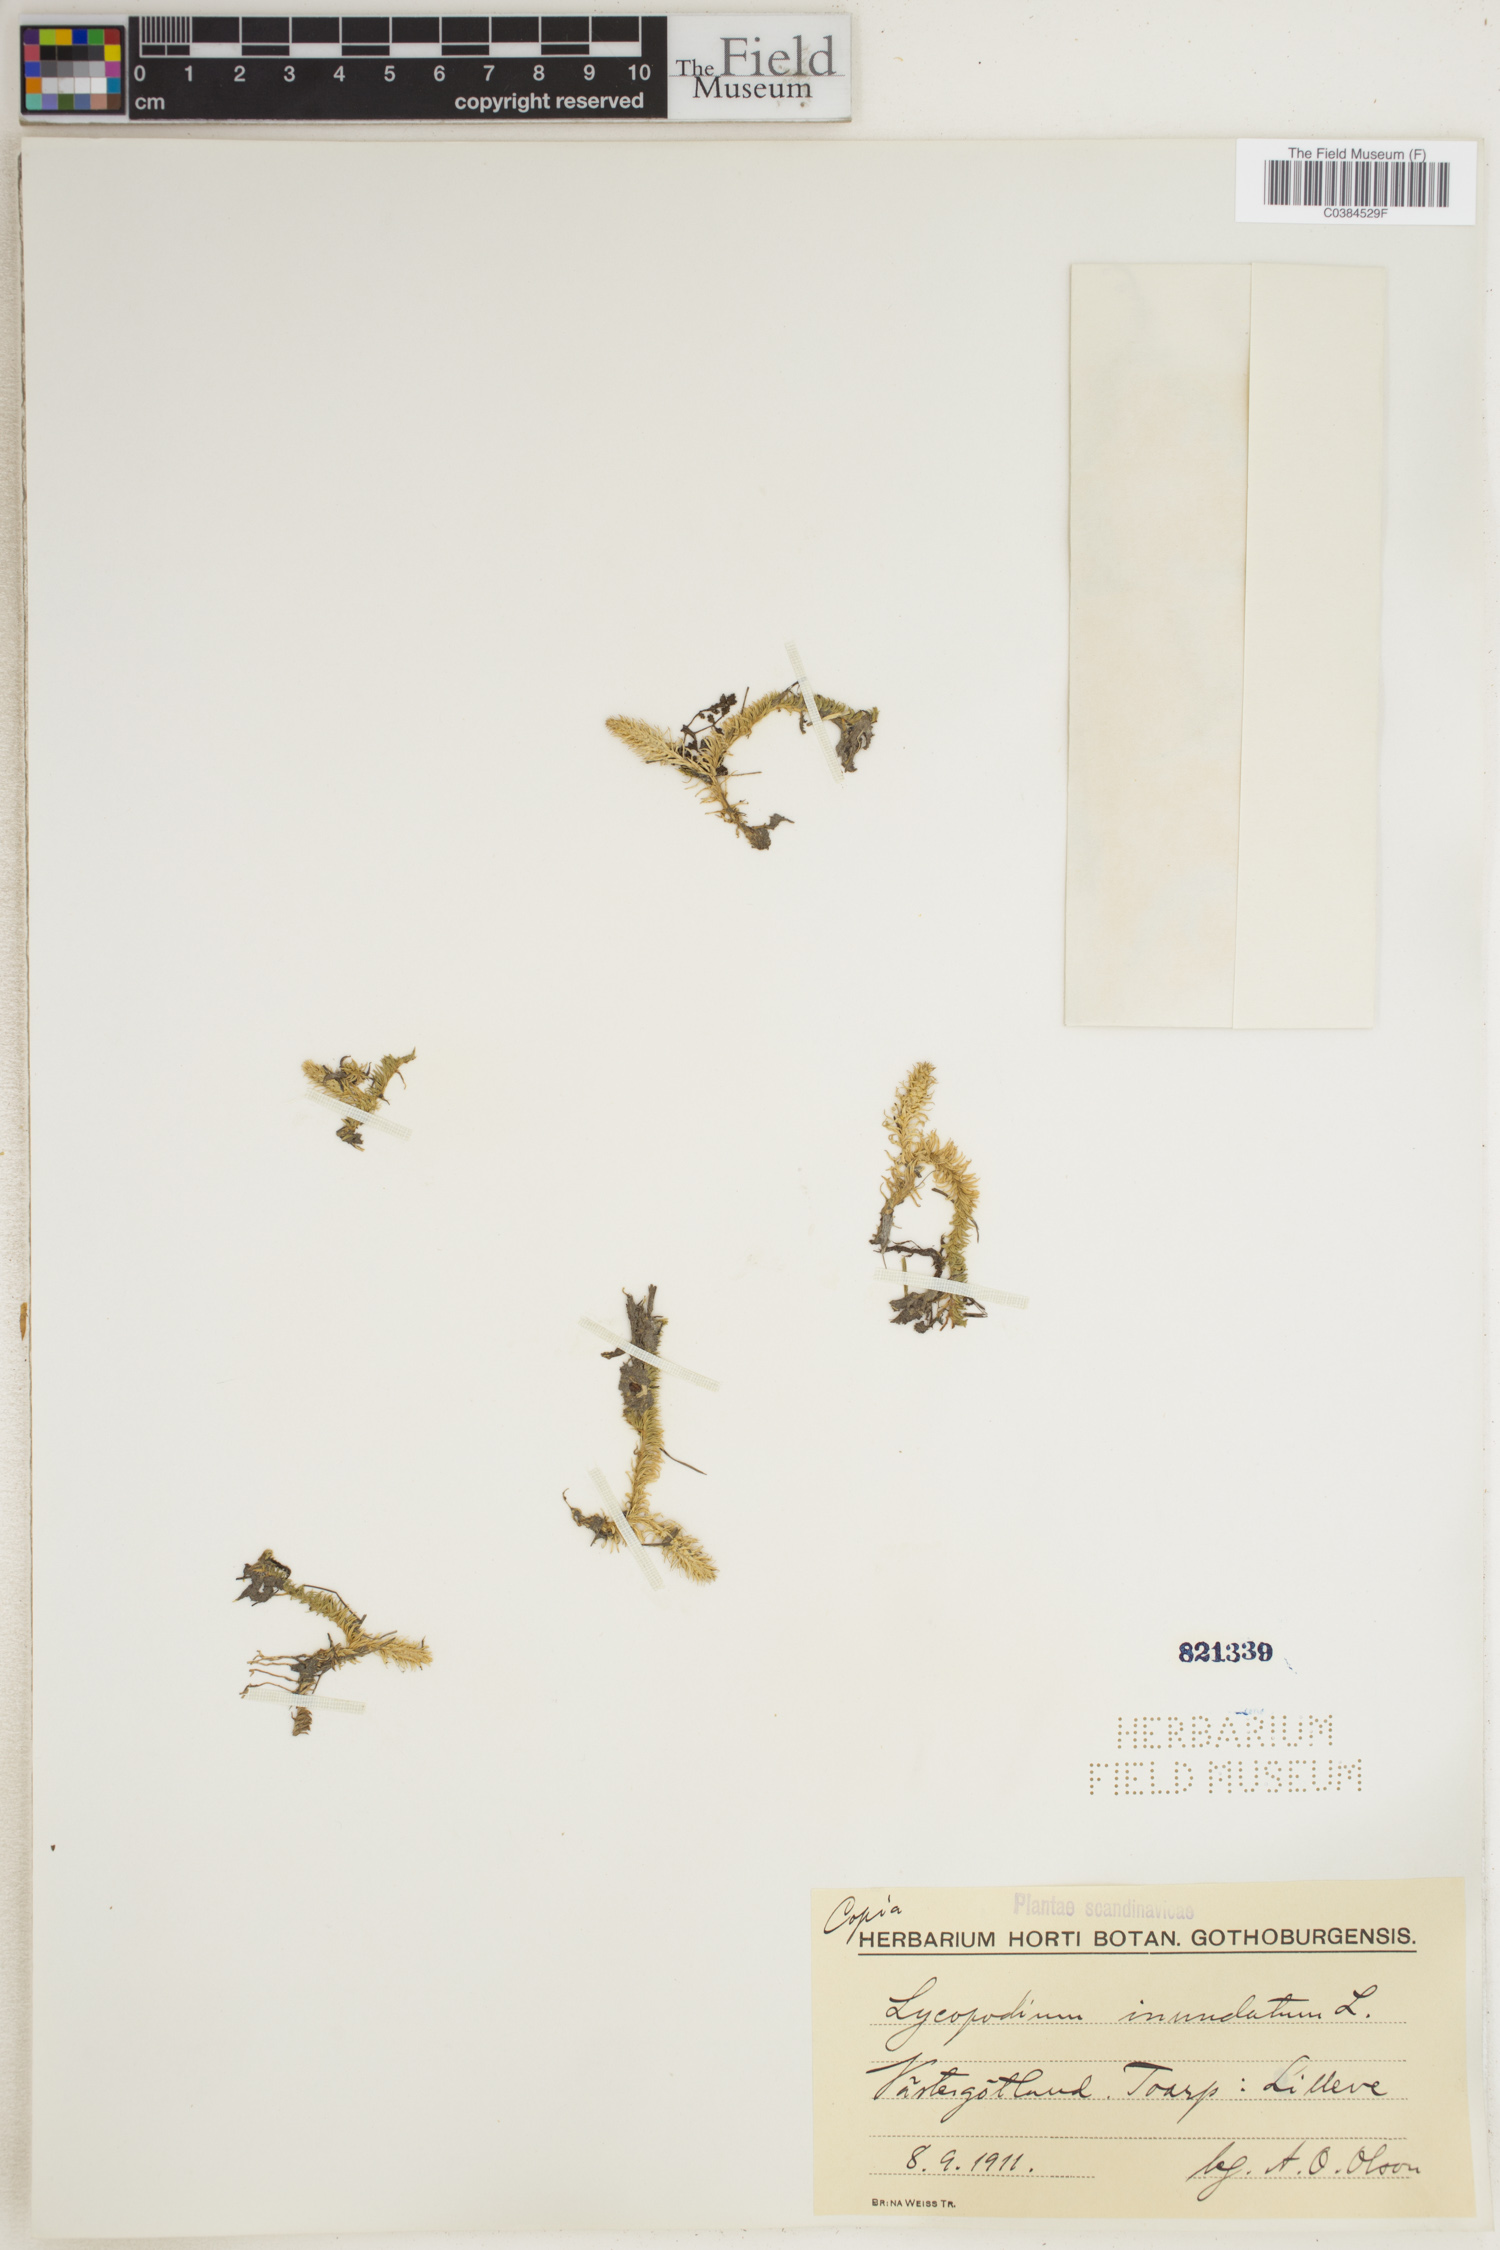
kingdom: Plantae
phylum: Tracheophyta
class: Lycopodiopsida
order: Lycopodiales
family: Lycopodiaceae
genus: Lycopodiella
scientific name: Lycopodiella inundata
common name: Marsh clubmoss
